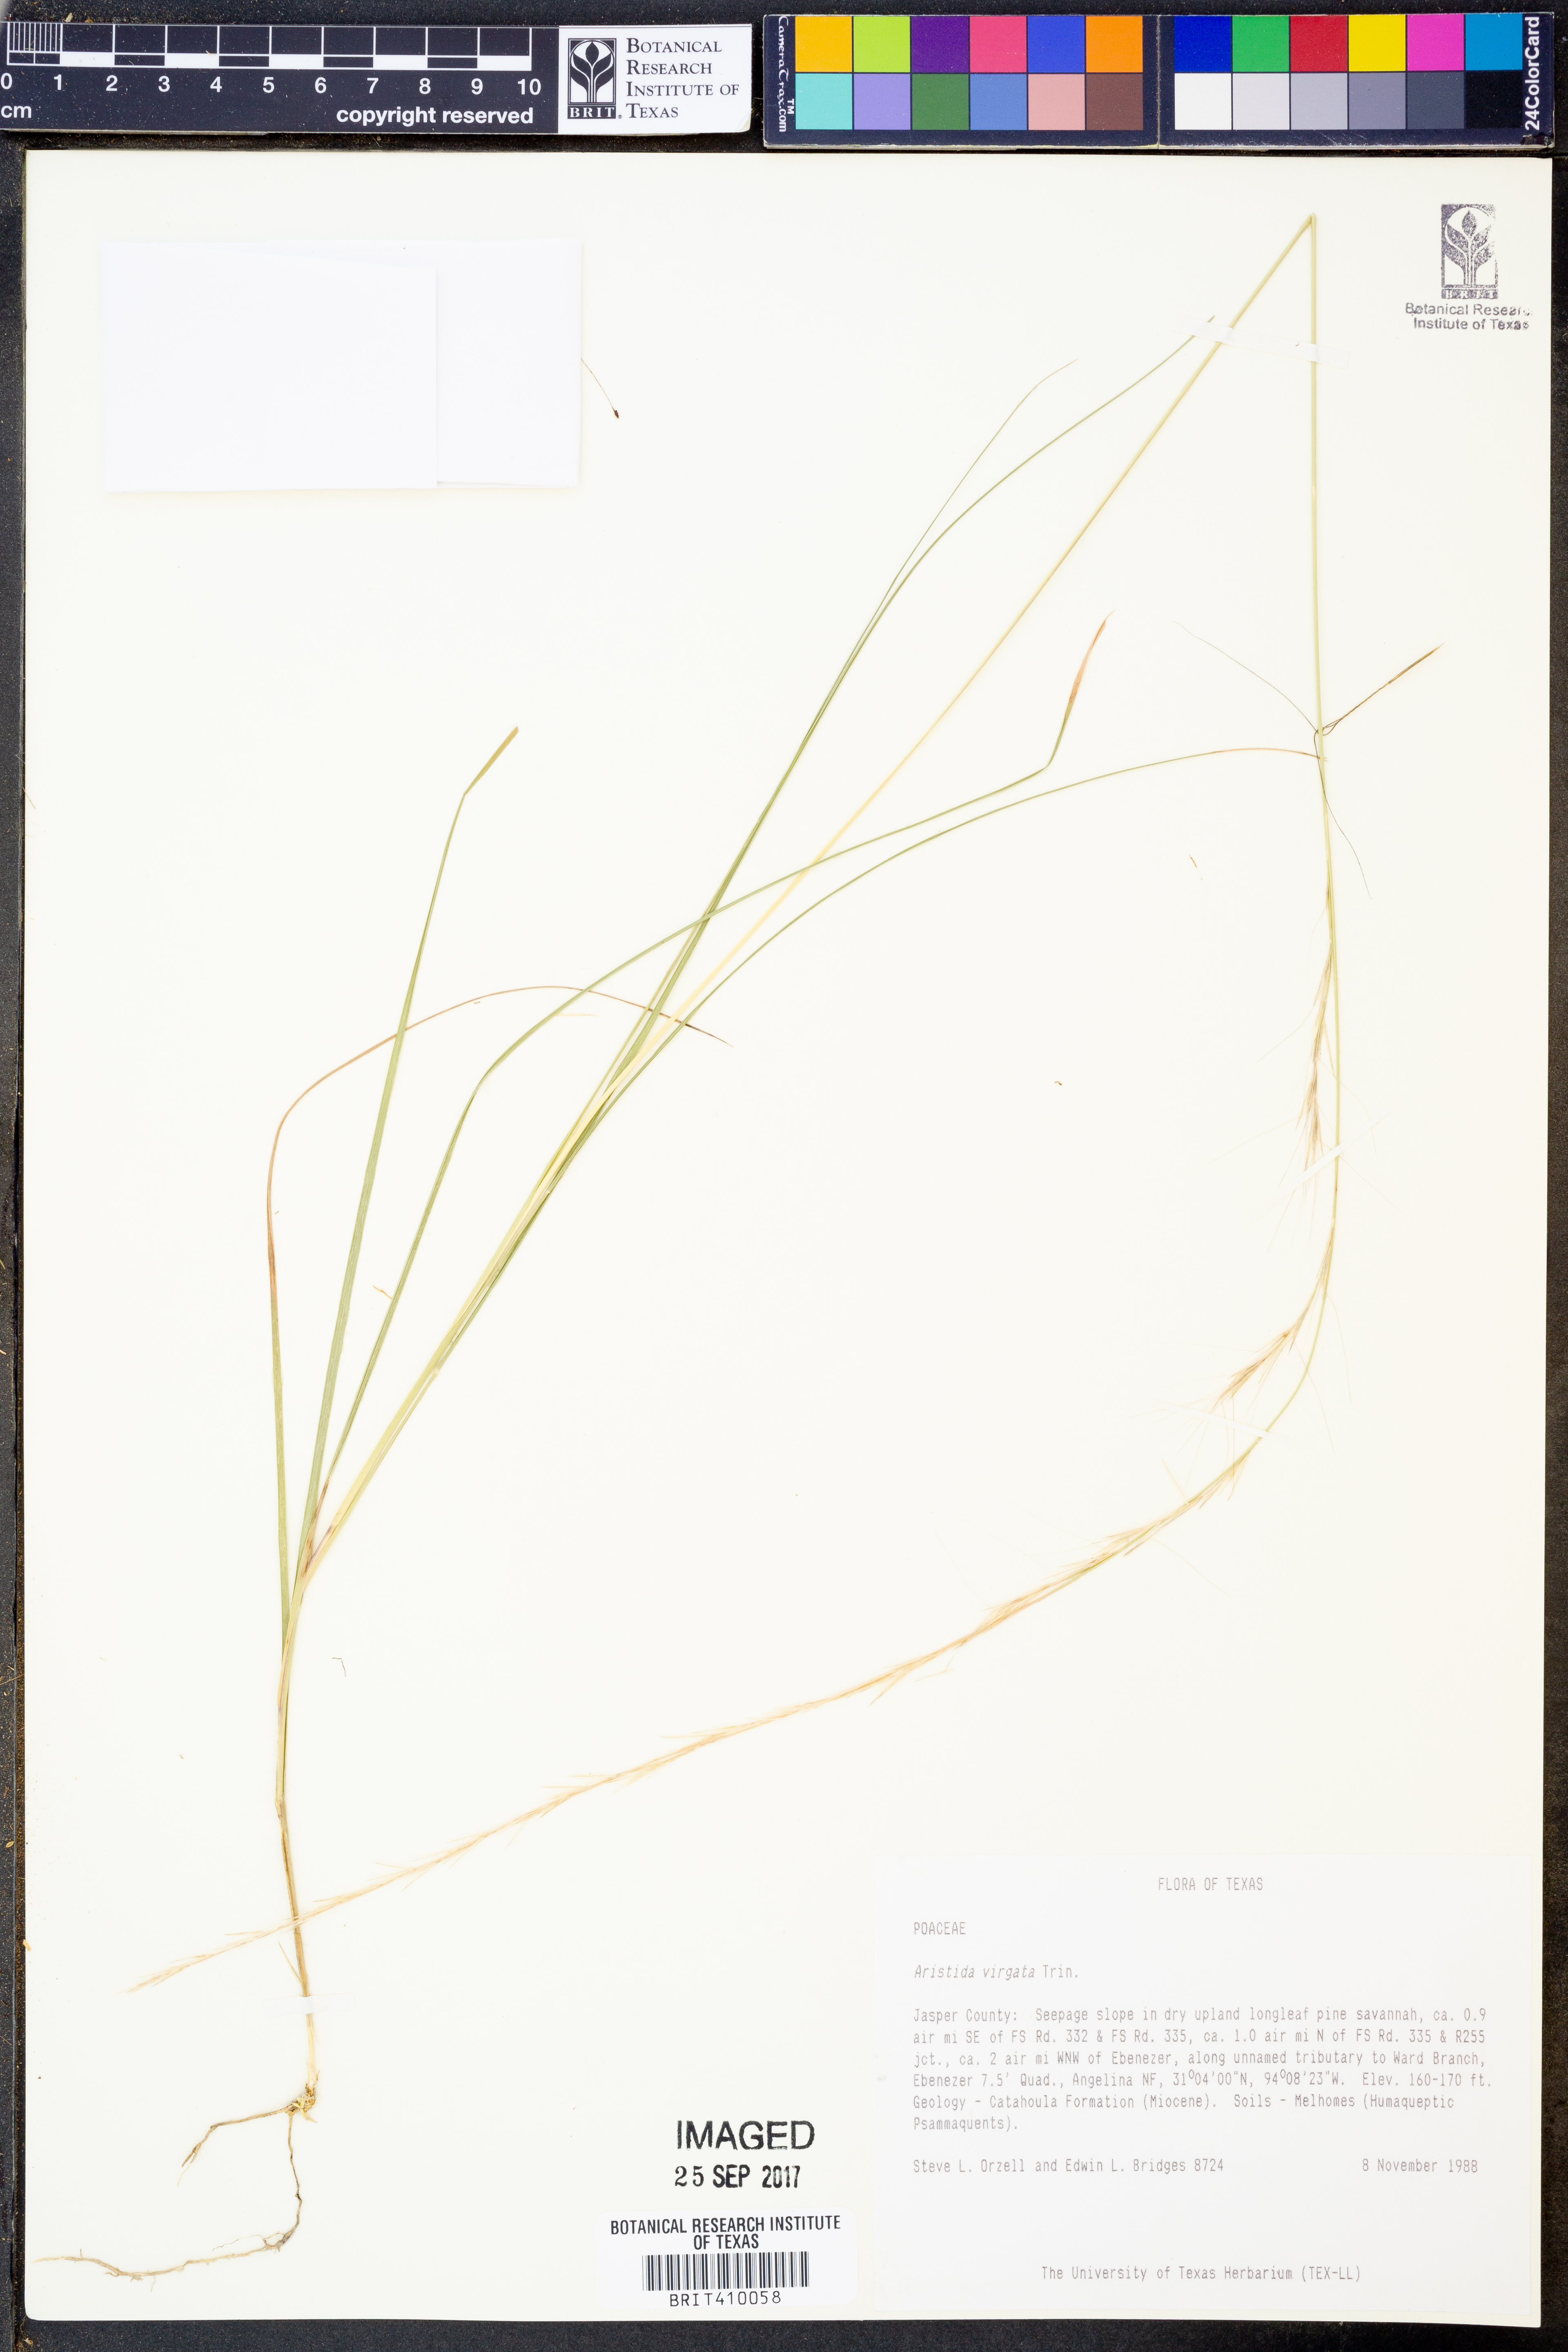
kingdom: Plantae
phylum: Tracheophyta
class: Liliopsida
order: Poales
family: Poaceae
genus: Aristida
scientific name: Aristida virgata
